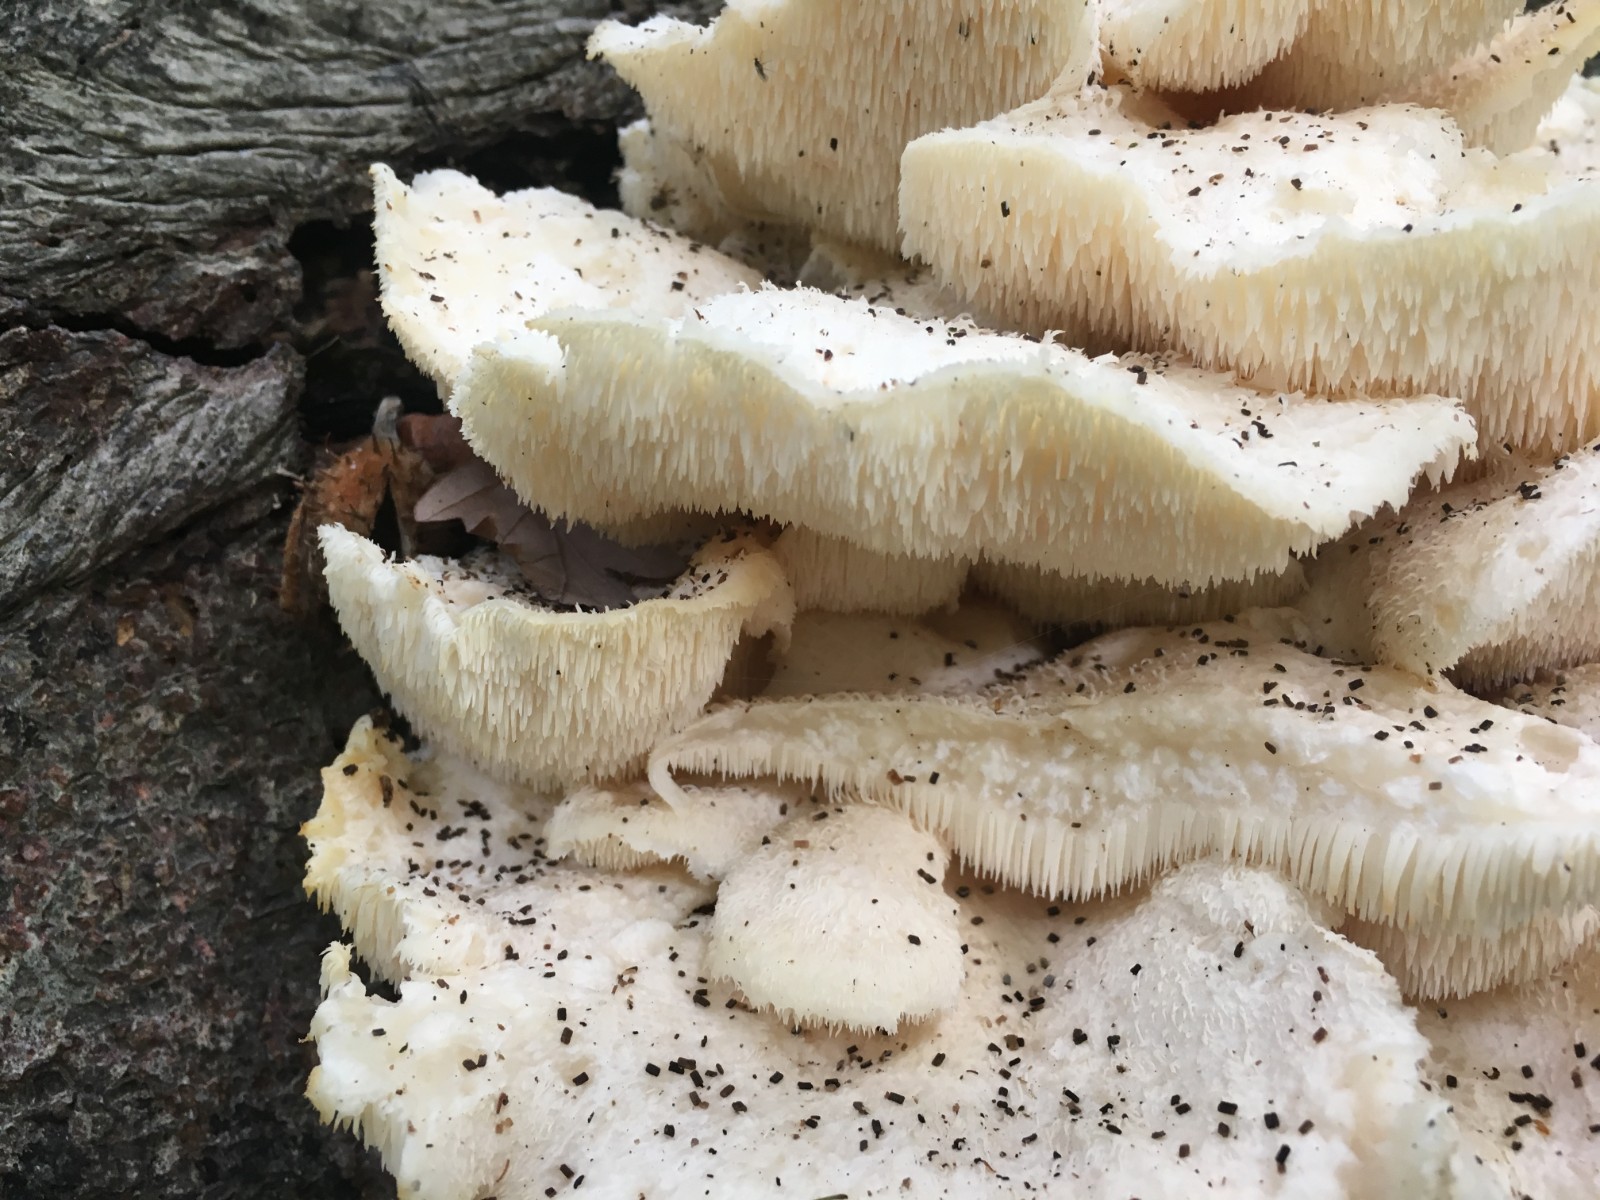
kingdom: Fungi
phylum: Basidiomycota
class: Agaricomycetes
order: Russulales
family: Hericiaceae
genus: Hericium
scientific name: Hericium cirrhatum
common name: børstepigsvamp
